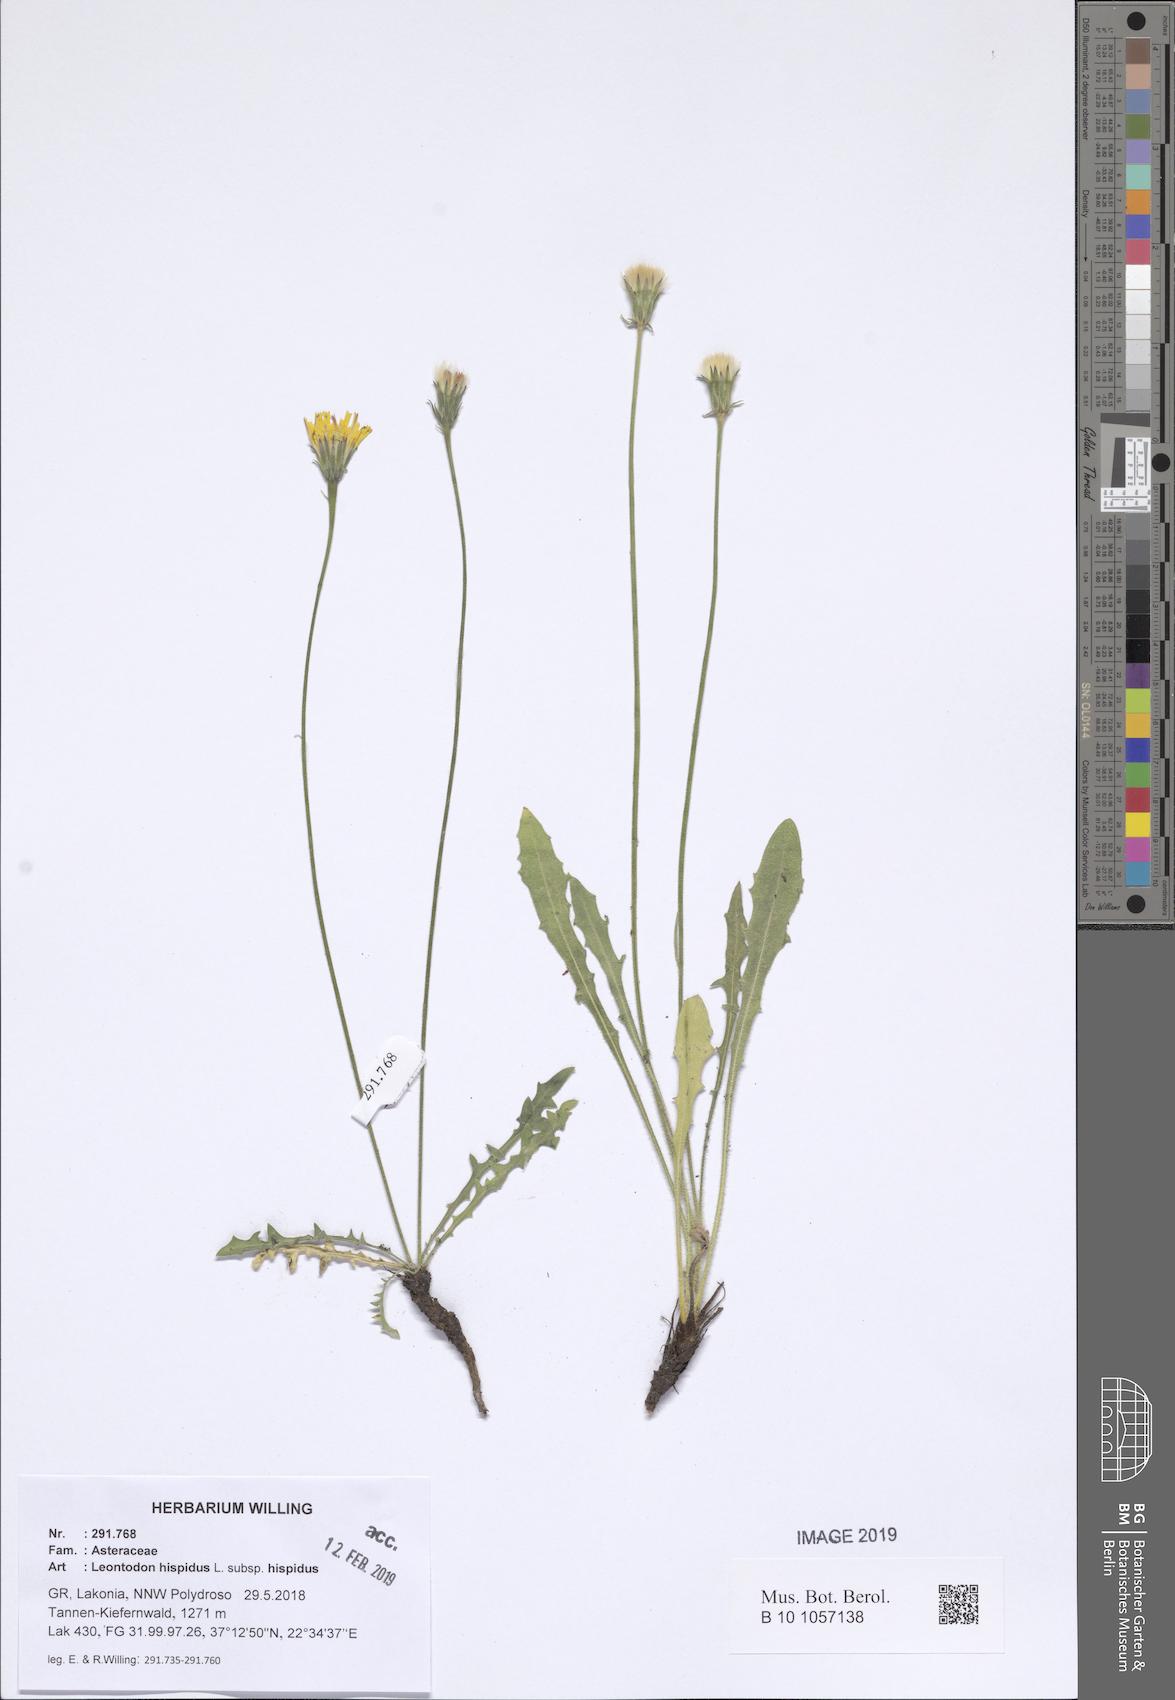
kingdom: Plantae
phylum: Tracheophyta
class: Magnoliopsida
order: Asterales
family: Asteraceae
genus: Leontodon
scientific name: Leontodon hispidus
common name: Rough hawkbit
